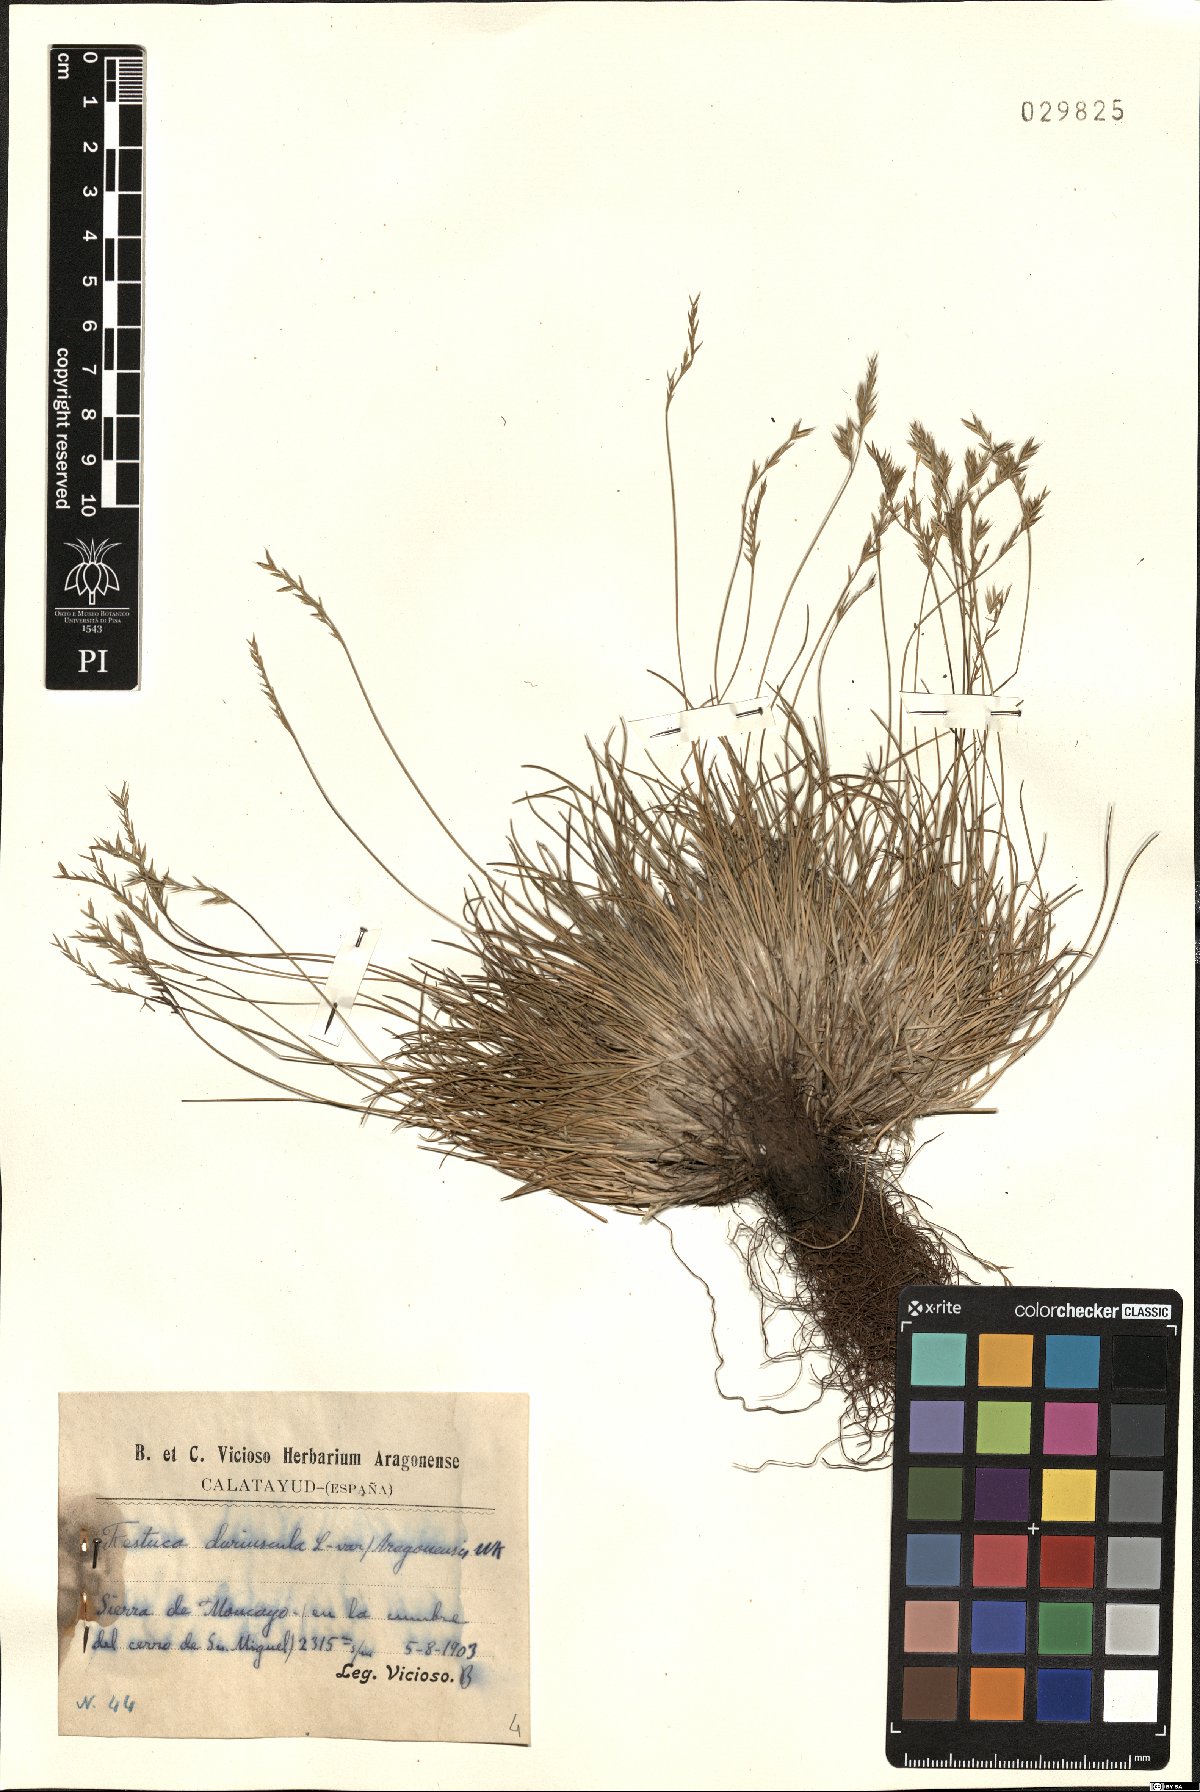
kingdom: Plantae
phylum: Tracheophyta
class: Liliopsida
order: Poales
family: Poaceae
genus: Festuca
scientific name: Festuca rubra
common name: Red fescue
